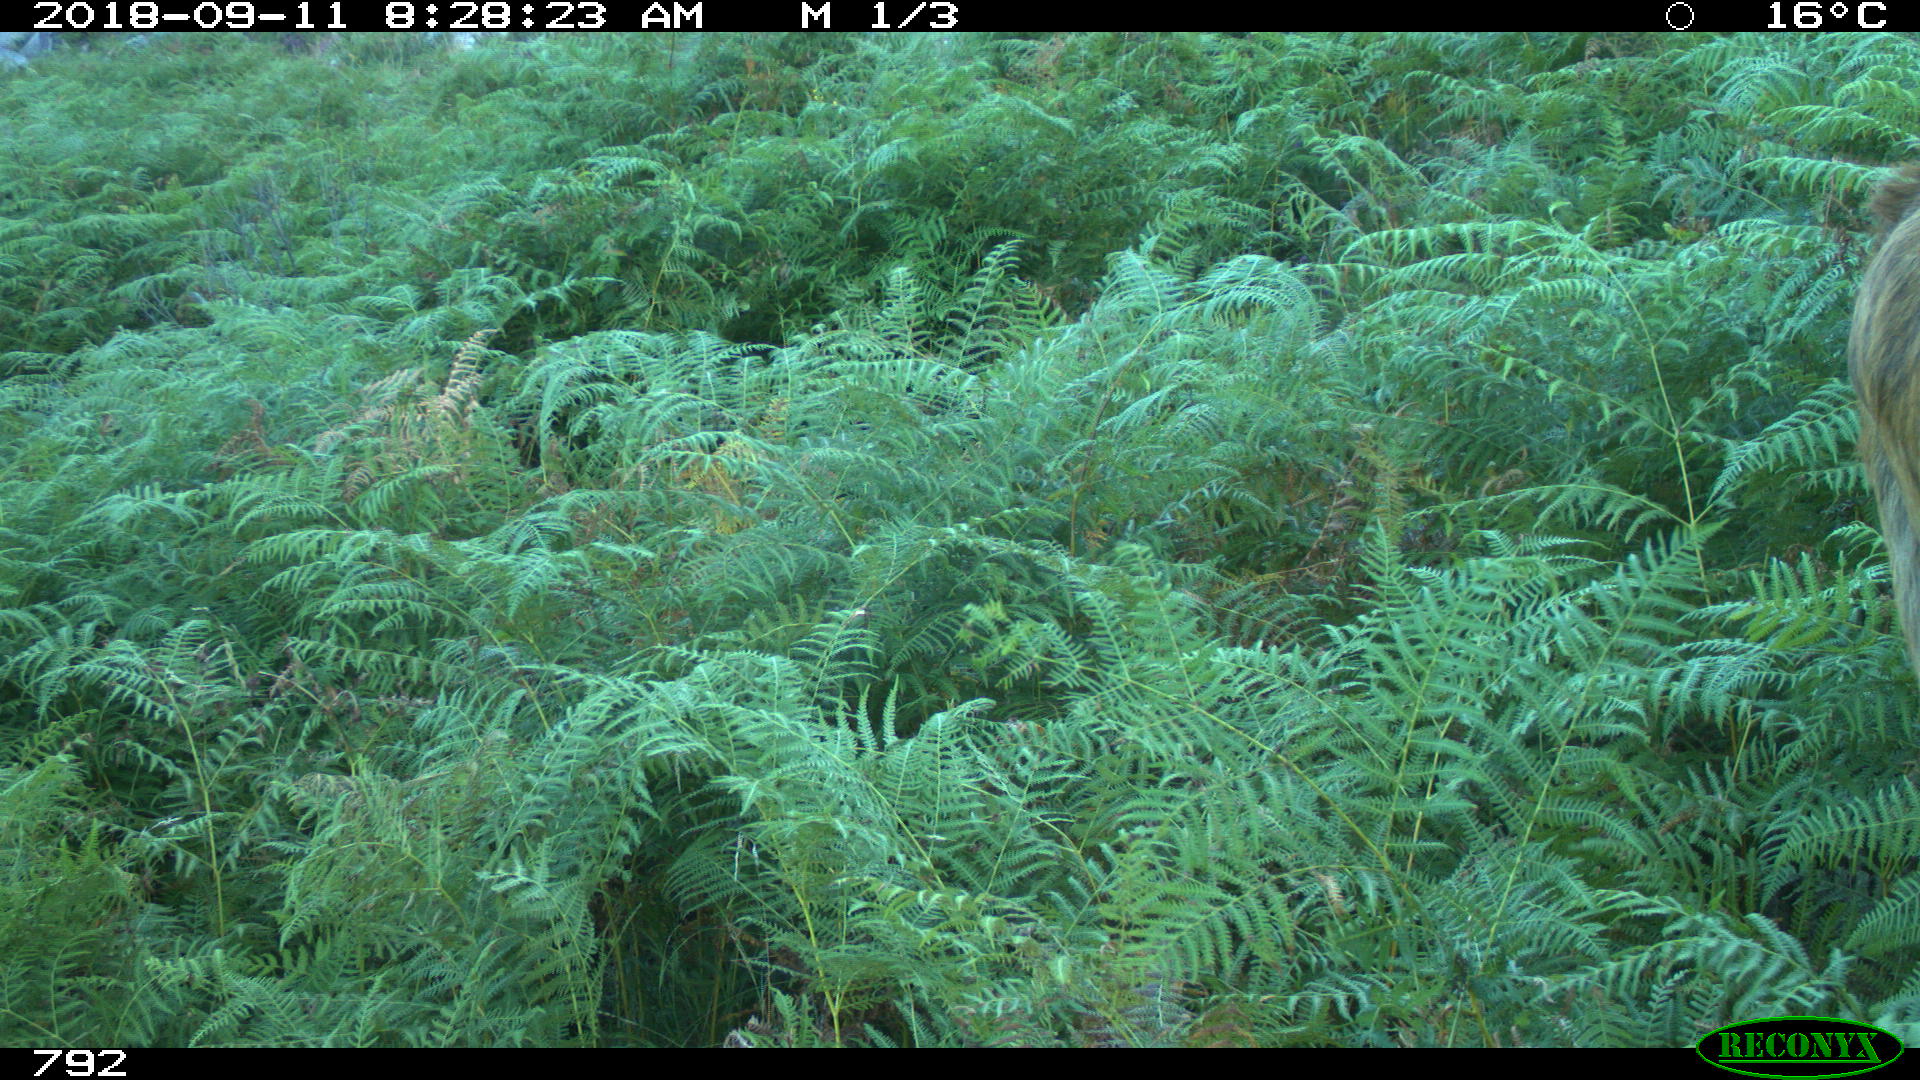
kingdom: Animalia
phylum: Chordata
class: Mammalia
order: Artiodactyla
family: Bovidae
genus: Bos
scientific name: Bos taurus
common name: Domesticated cattle
